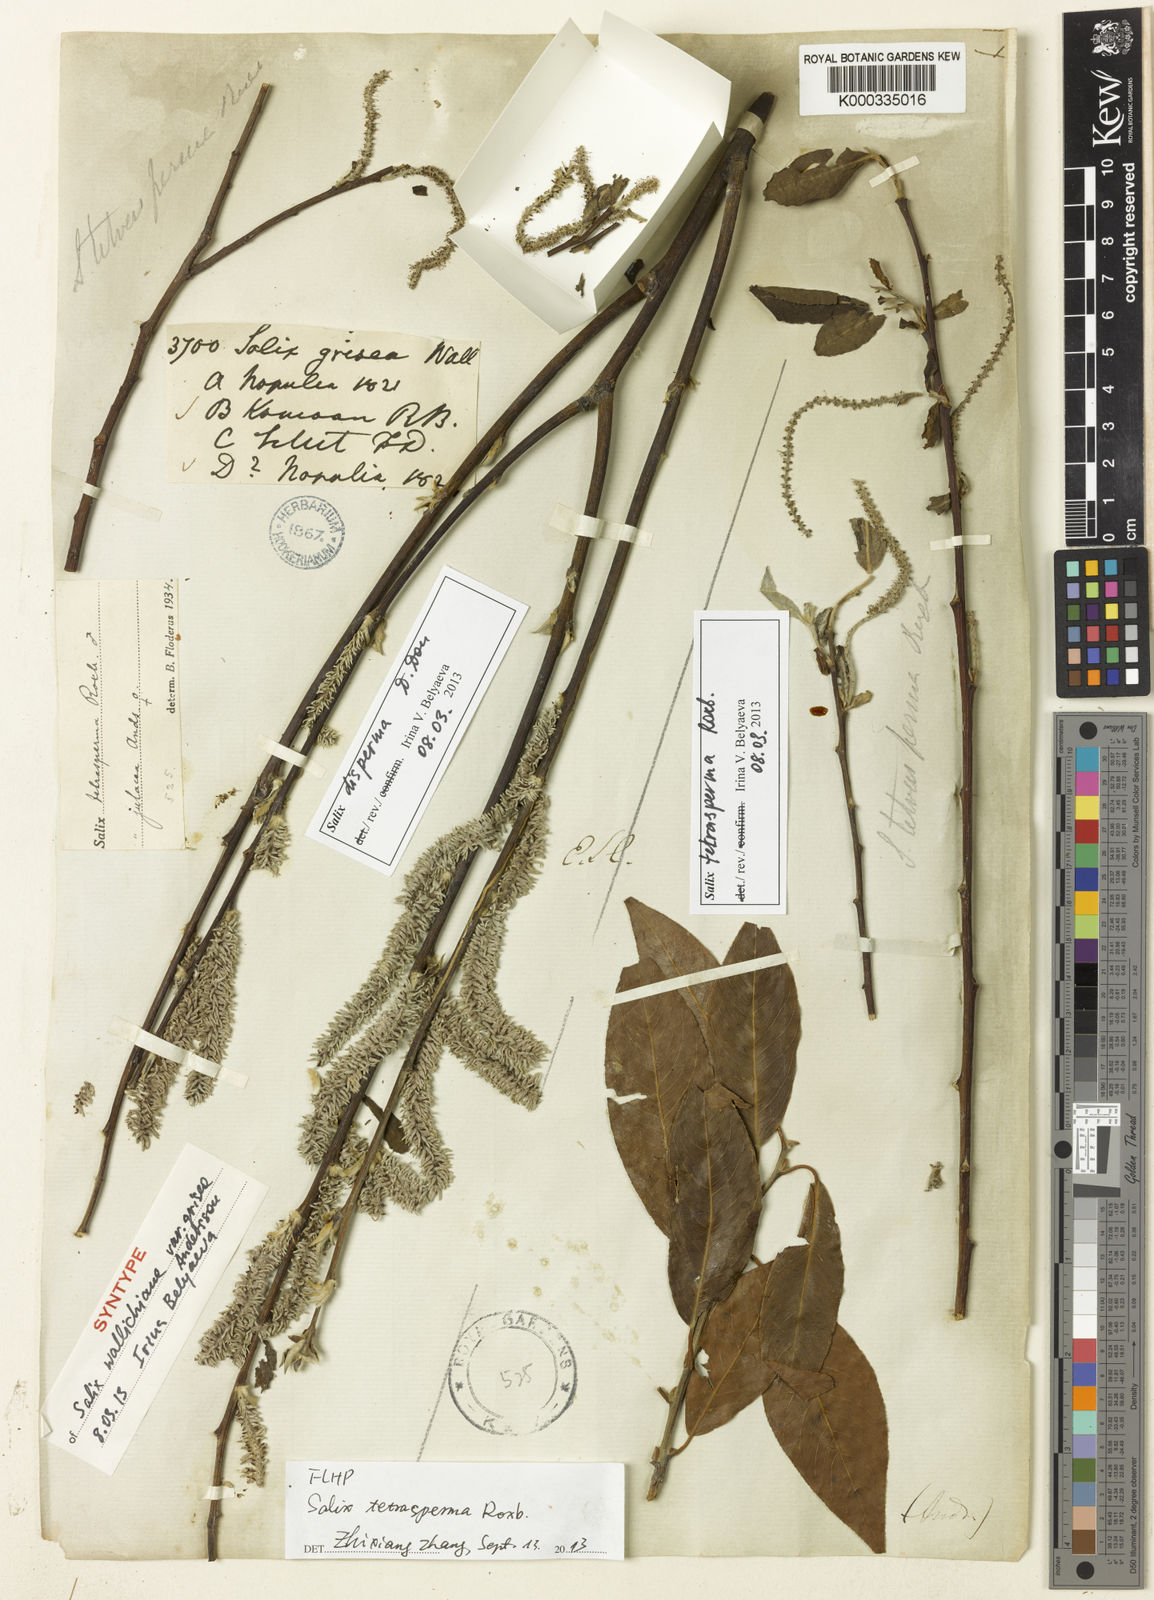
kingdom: Plantae
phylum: Tracheophyta
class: Magnoliopsida
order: Malpighiales
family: Salicaceae
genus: Salix
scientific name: Salix tetrasperma
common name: Indian willow
